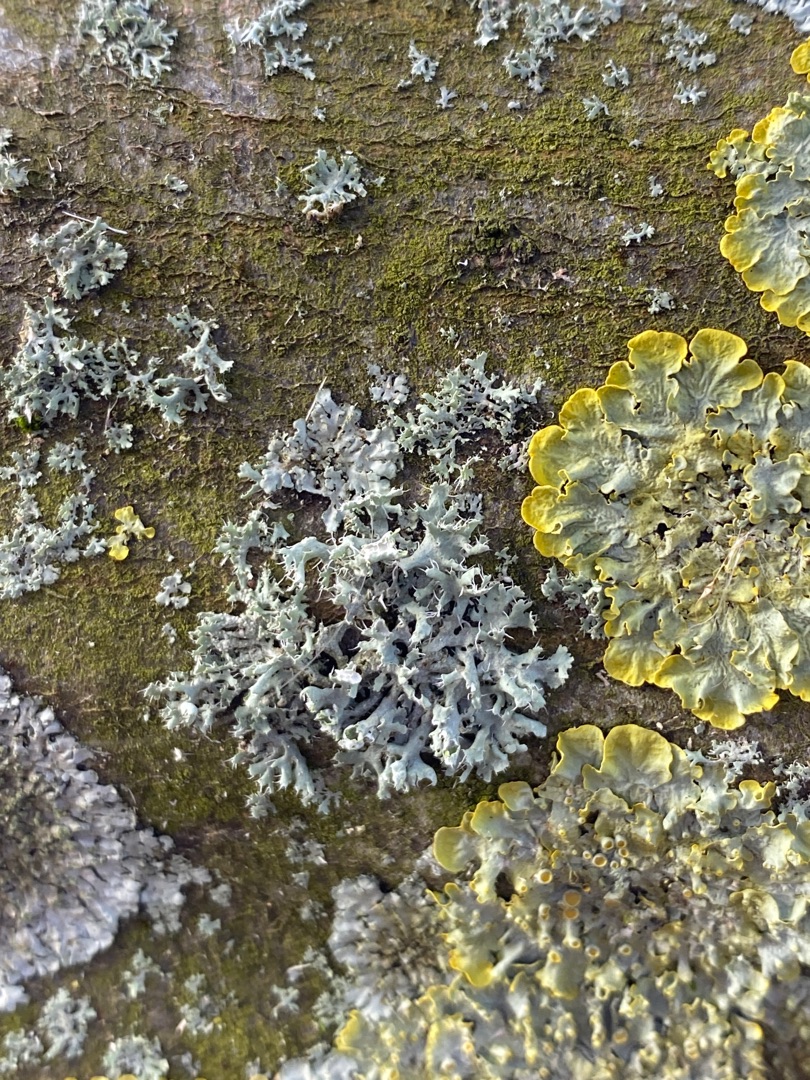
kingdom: Fungi
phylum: Ascomycota
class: Lecanoromycetes
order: Teloschistales
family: Teloschistaceae
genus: Xanthoria
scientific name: Xanthoria parietina
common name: Almindelig væggelav
